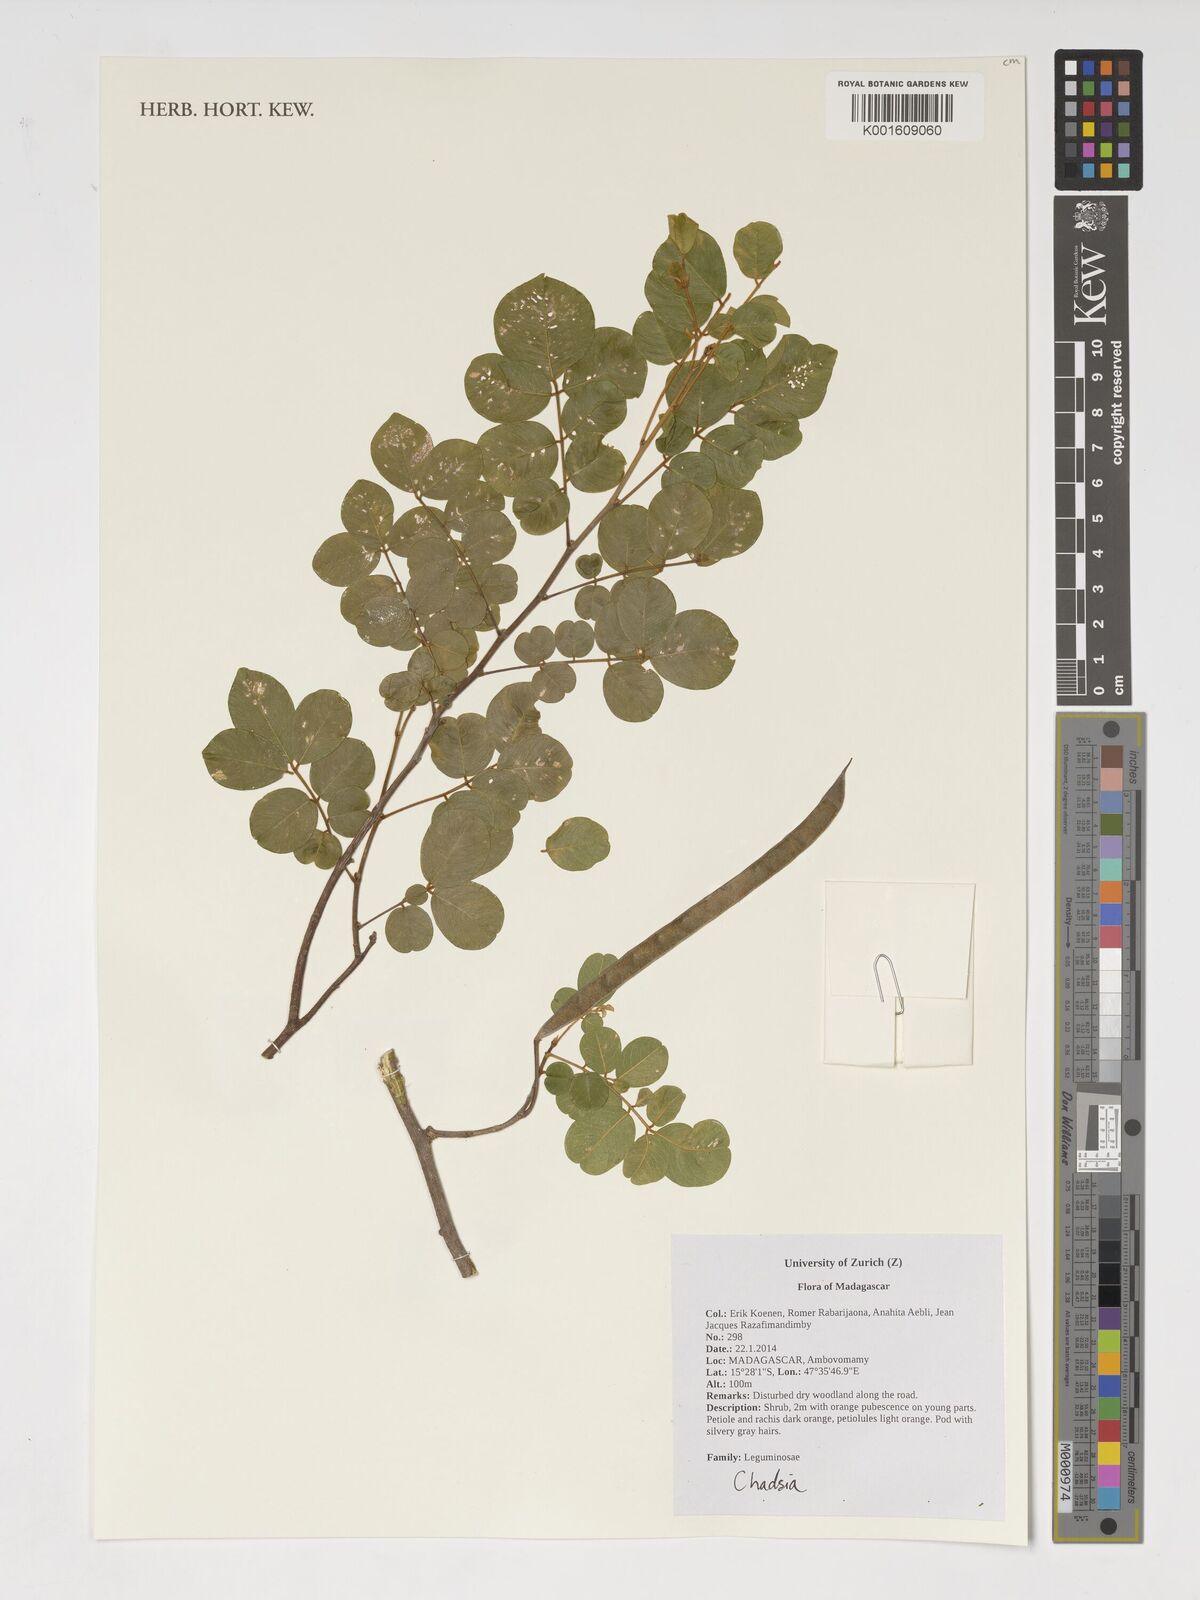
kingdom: Plantae
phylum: Tracheophyta
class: Magnoliopsida
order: Fabales
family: Fabaceae
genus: Chadsia
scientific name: Chadsia
